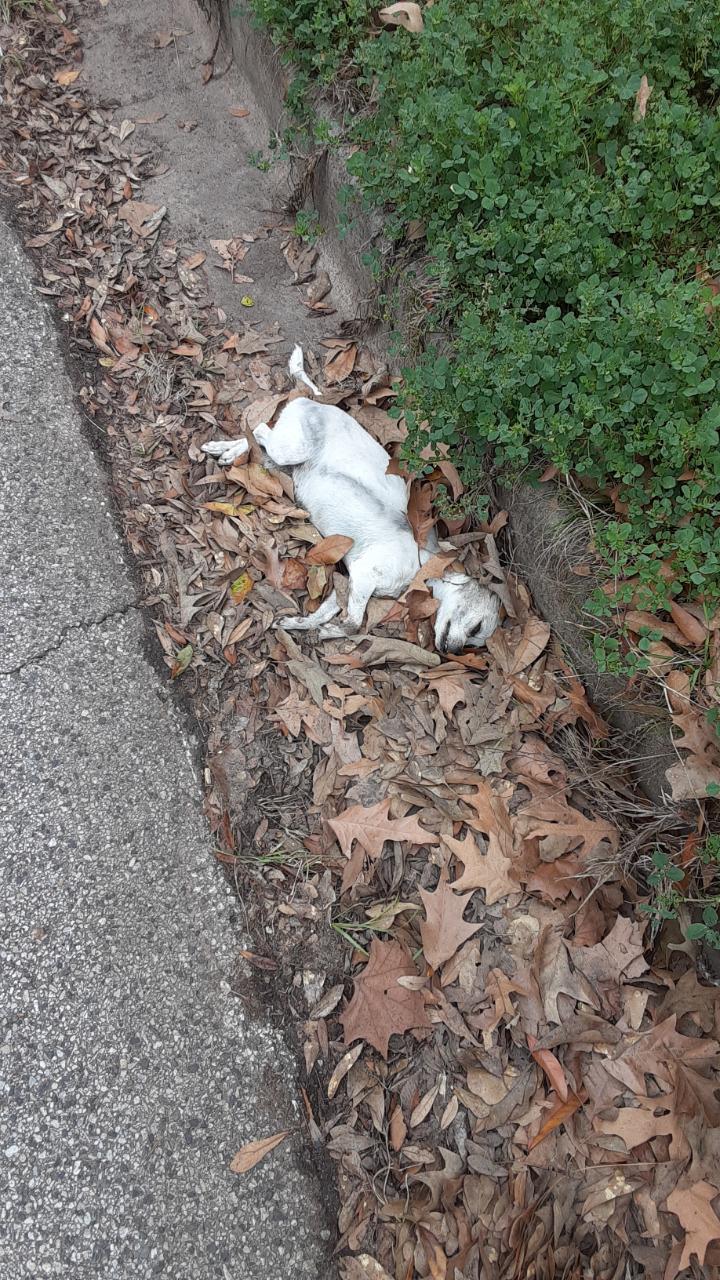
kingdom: Animalia
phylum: Chordata
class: Mammalia
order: Carnivora
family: Canidae
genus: Canis
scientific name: Canis lupus
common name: Gray wolf
